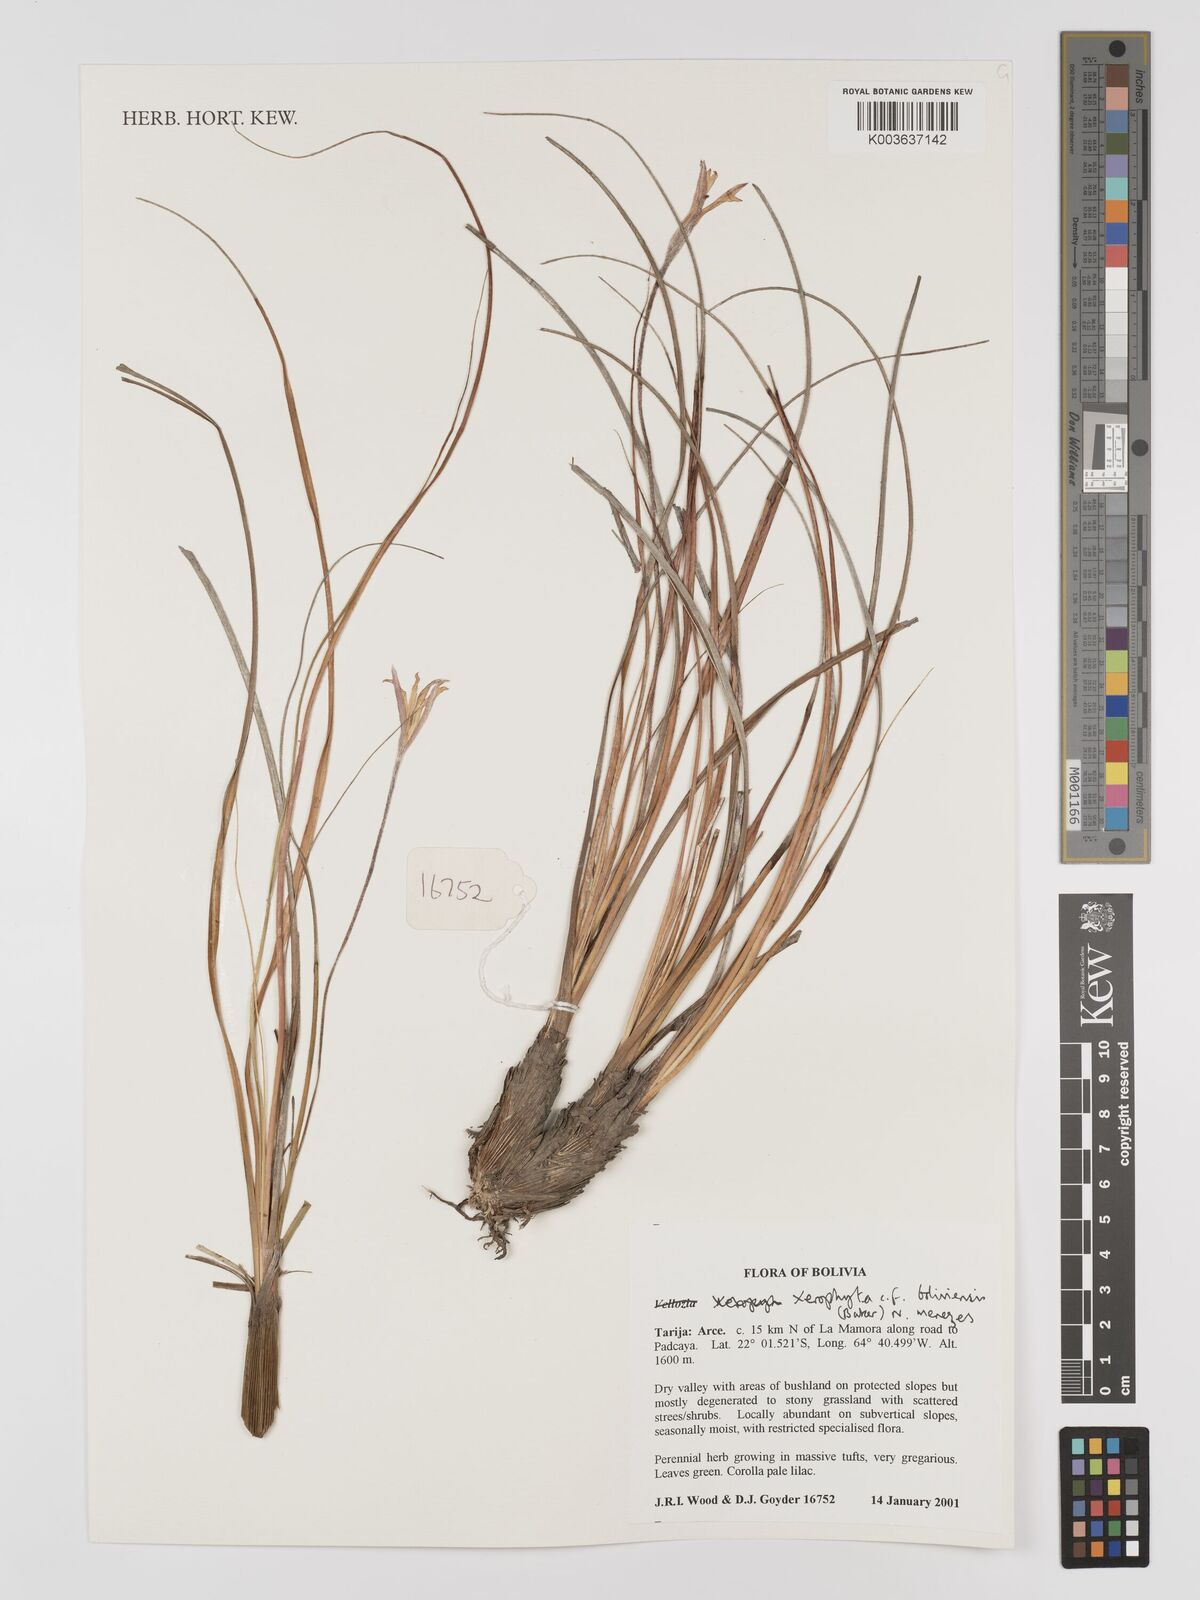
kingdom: Plantae
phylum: Tracheophyta
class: Liliopsida
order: Pandanales
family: Velloziaceae
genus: Barbaceniopsis
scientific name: Barbaceniopsis boliviensis
